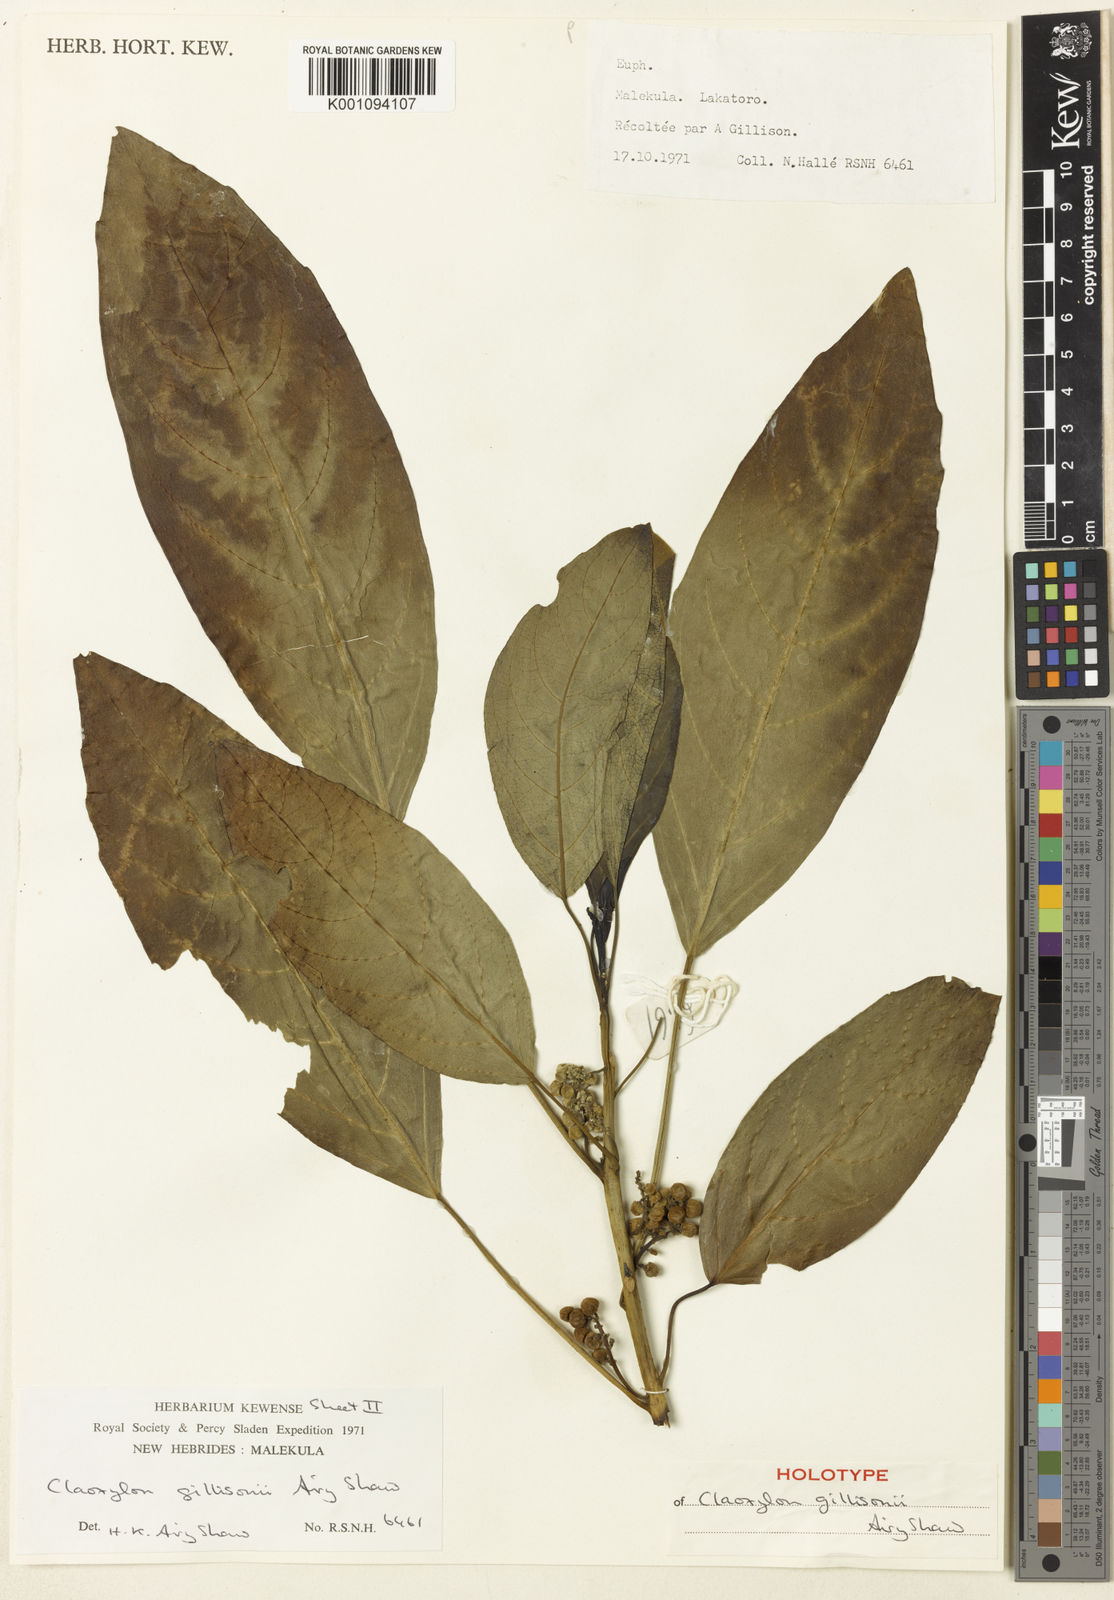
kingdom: Plantae
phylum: Tracheophyta
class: Magnoliopsida
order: Malpighiales
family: Euphorbiaceae
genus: Claoxylon
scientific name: Claoxylon gillisonii
